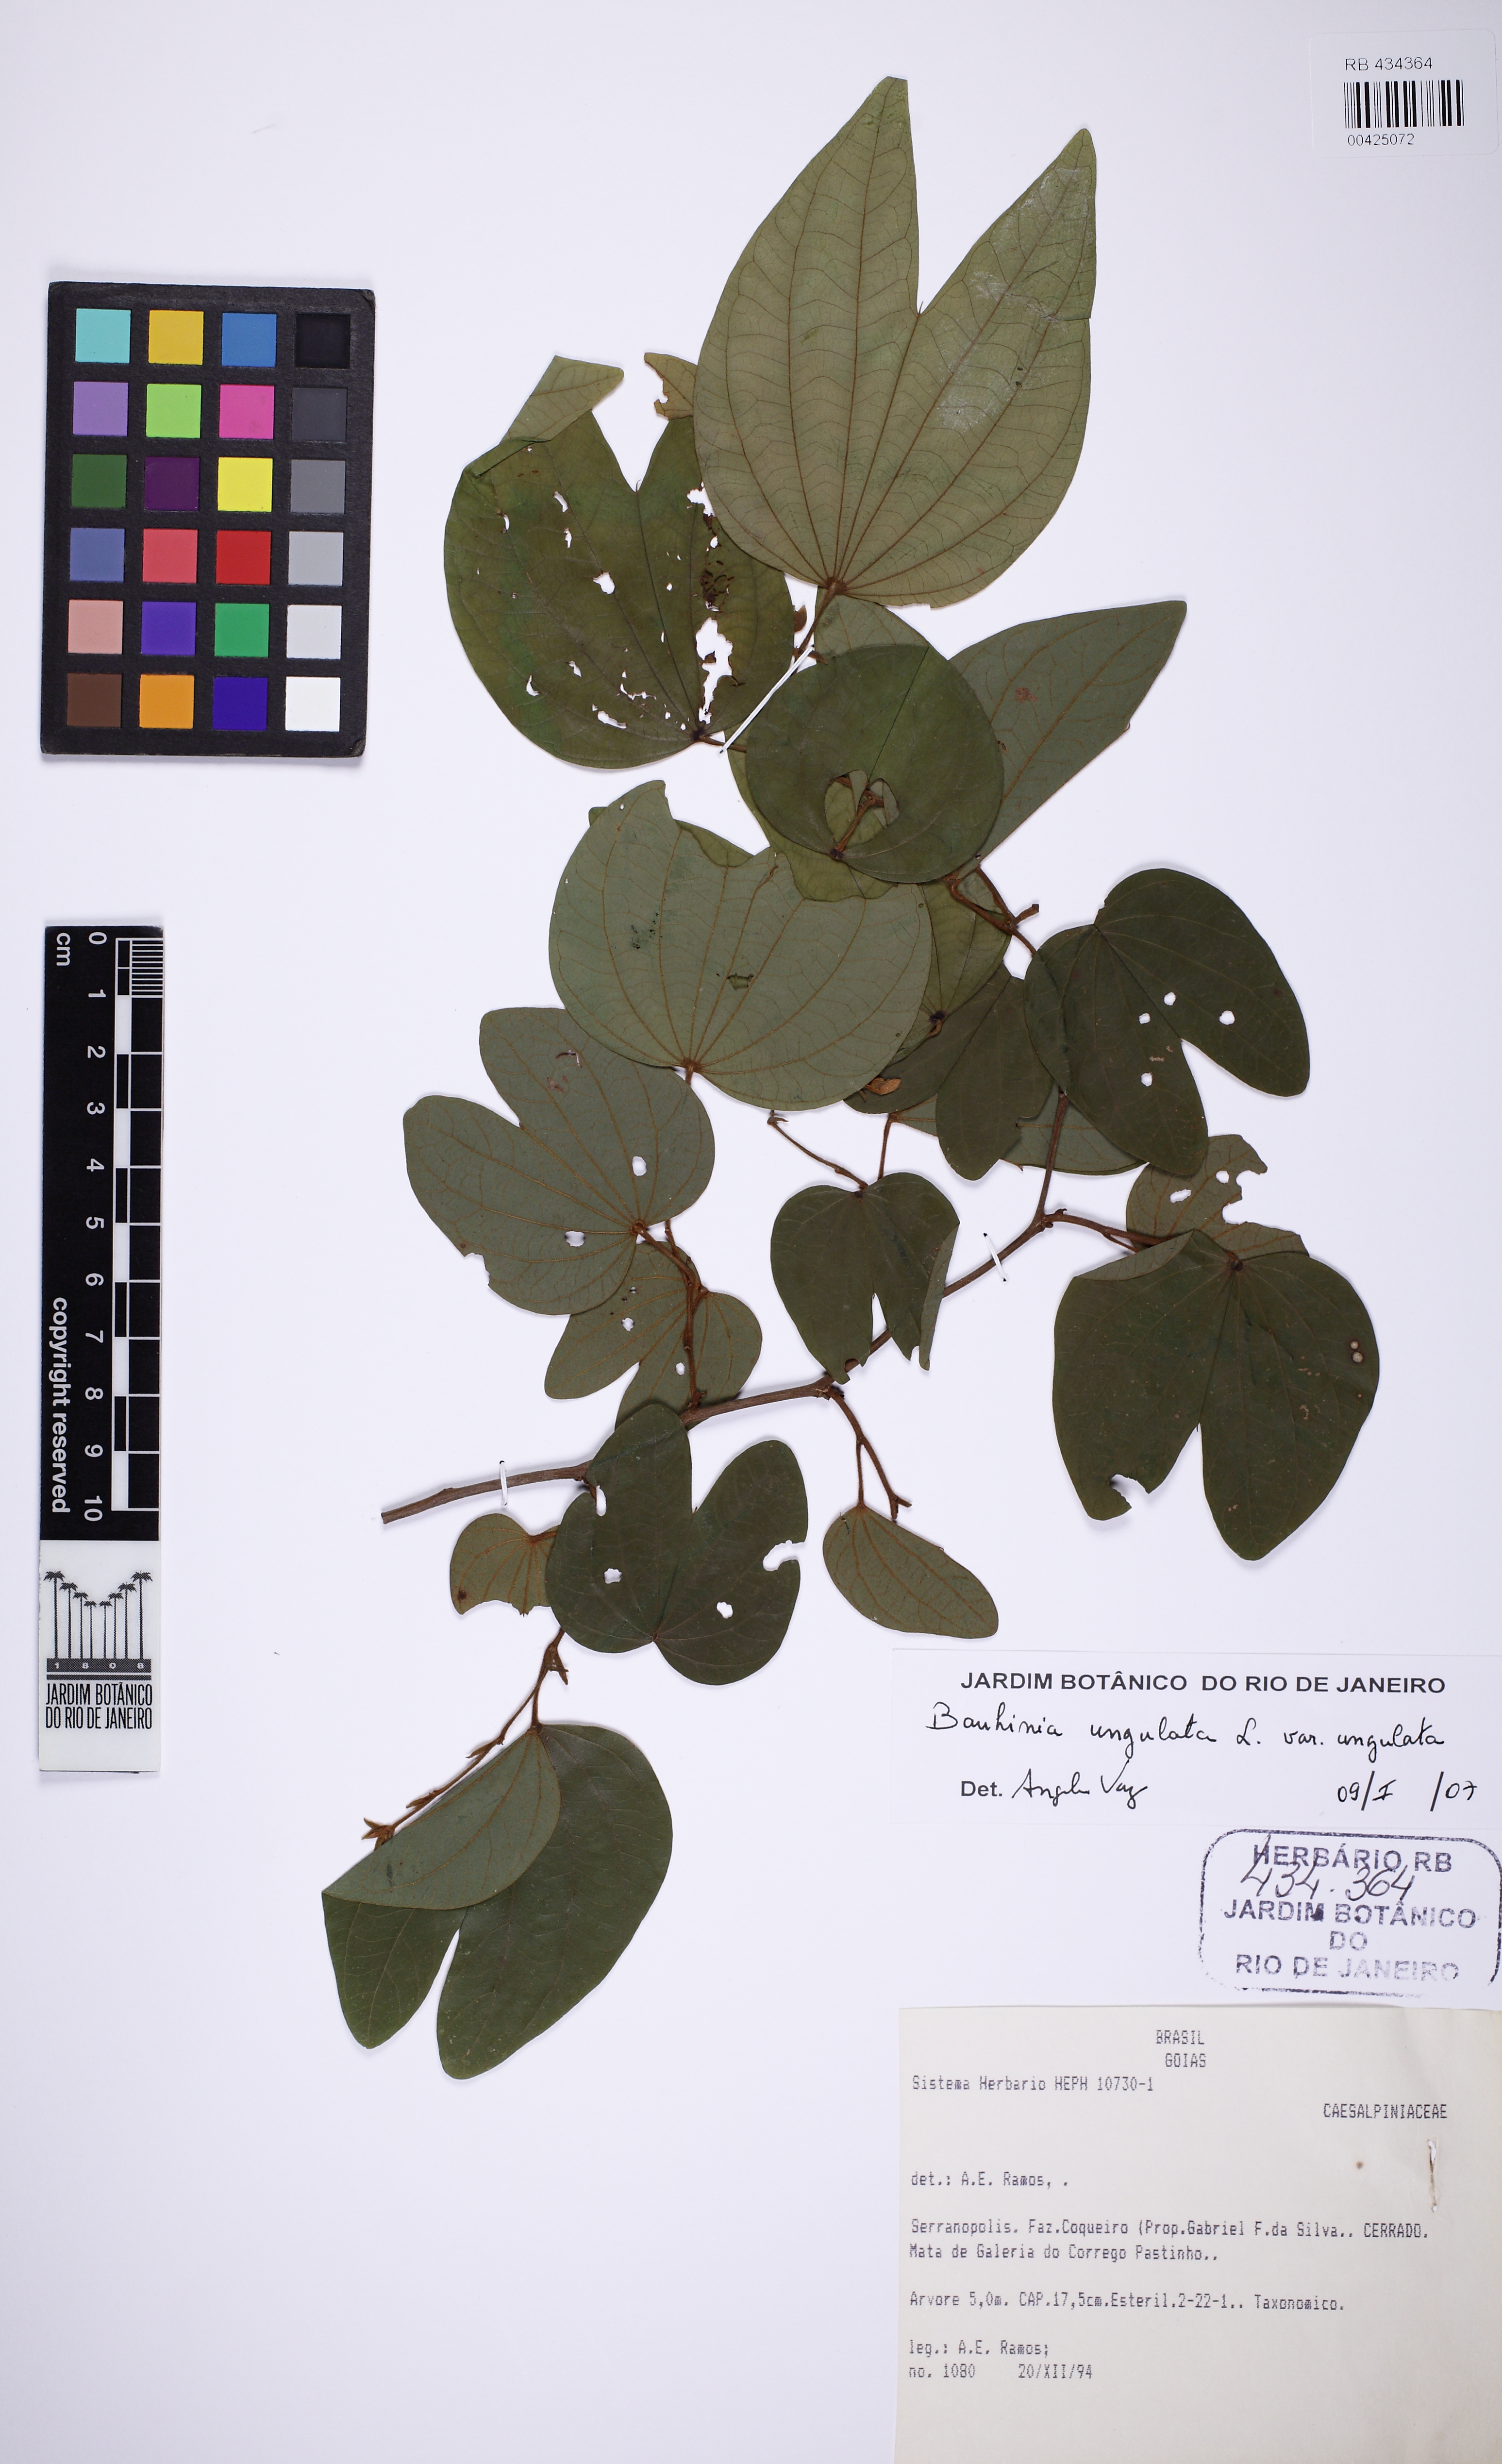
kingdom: Plantae
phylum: Tracheophyta
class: Magnoliopsida
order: Fabales
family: Fabaceae
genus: Bauhinia
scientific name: Bauhinia ungulata
